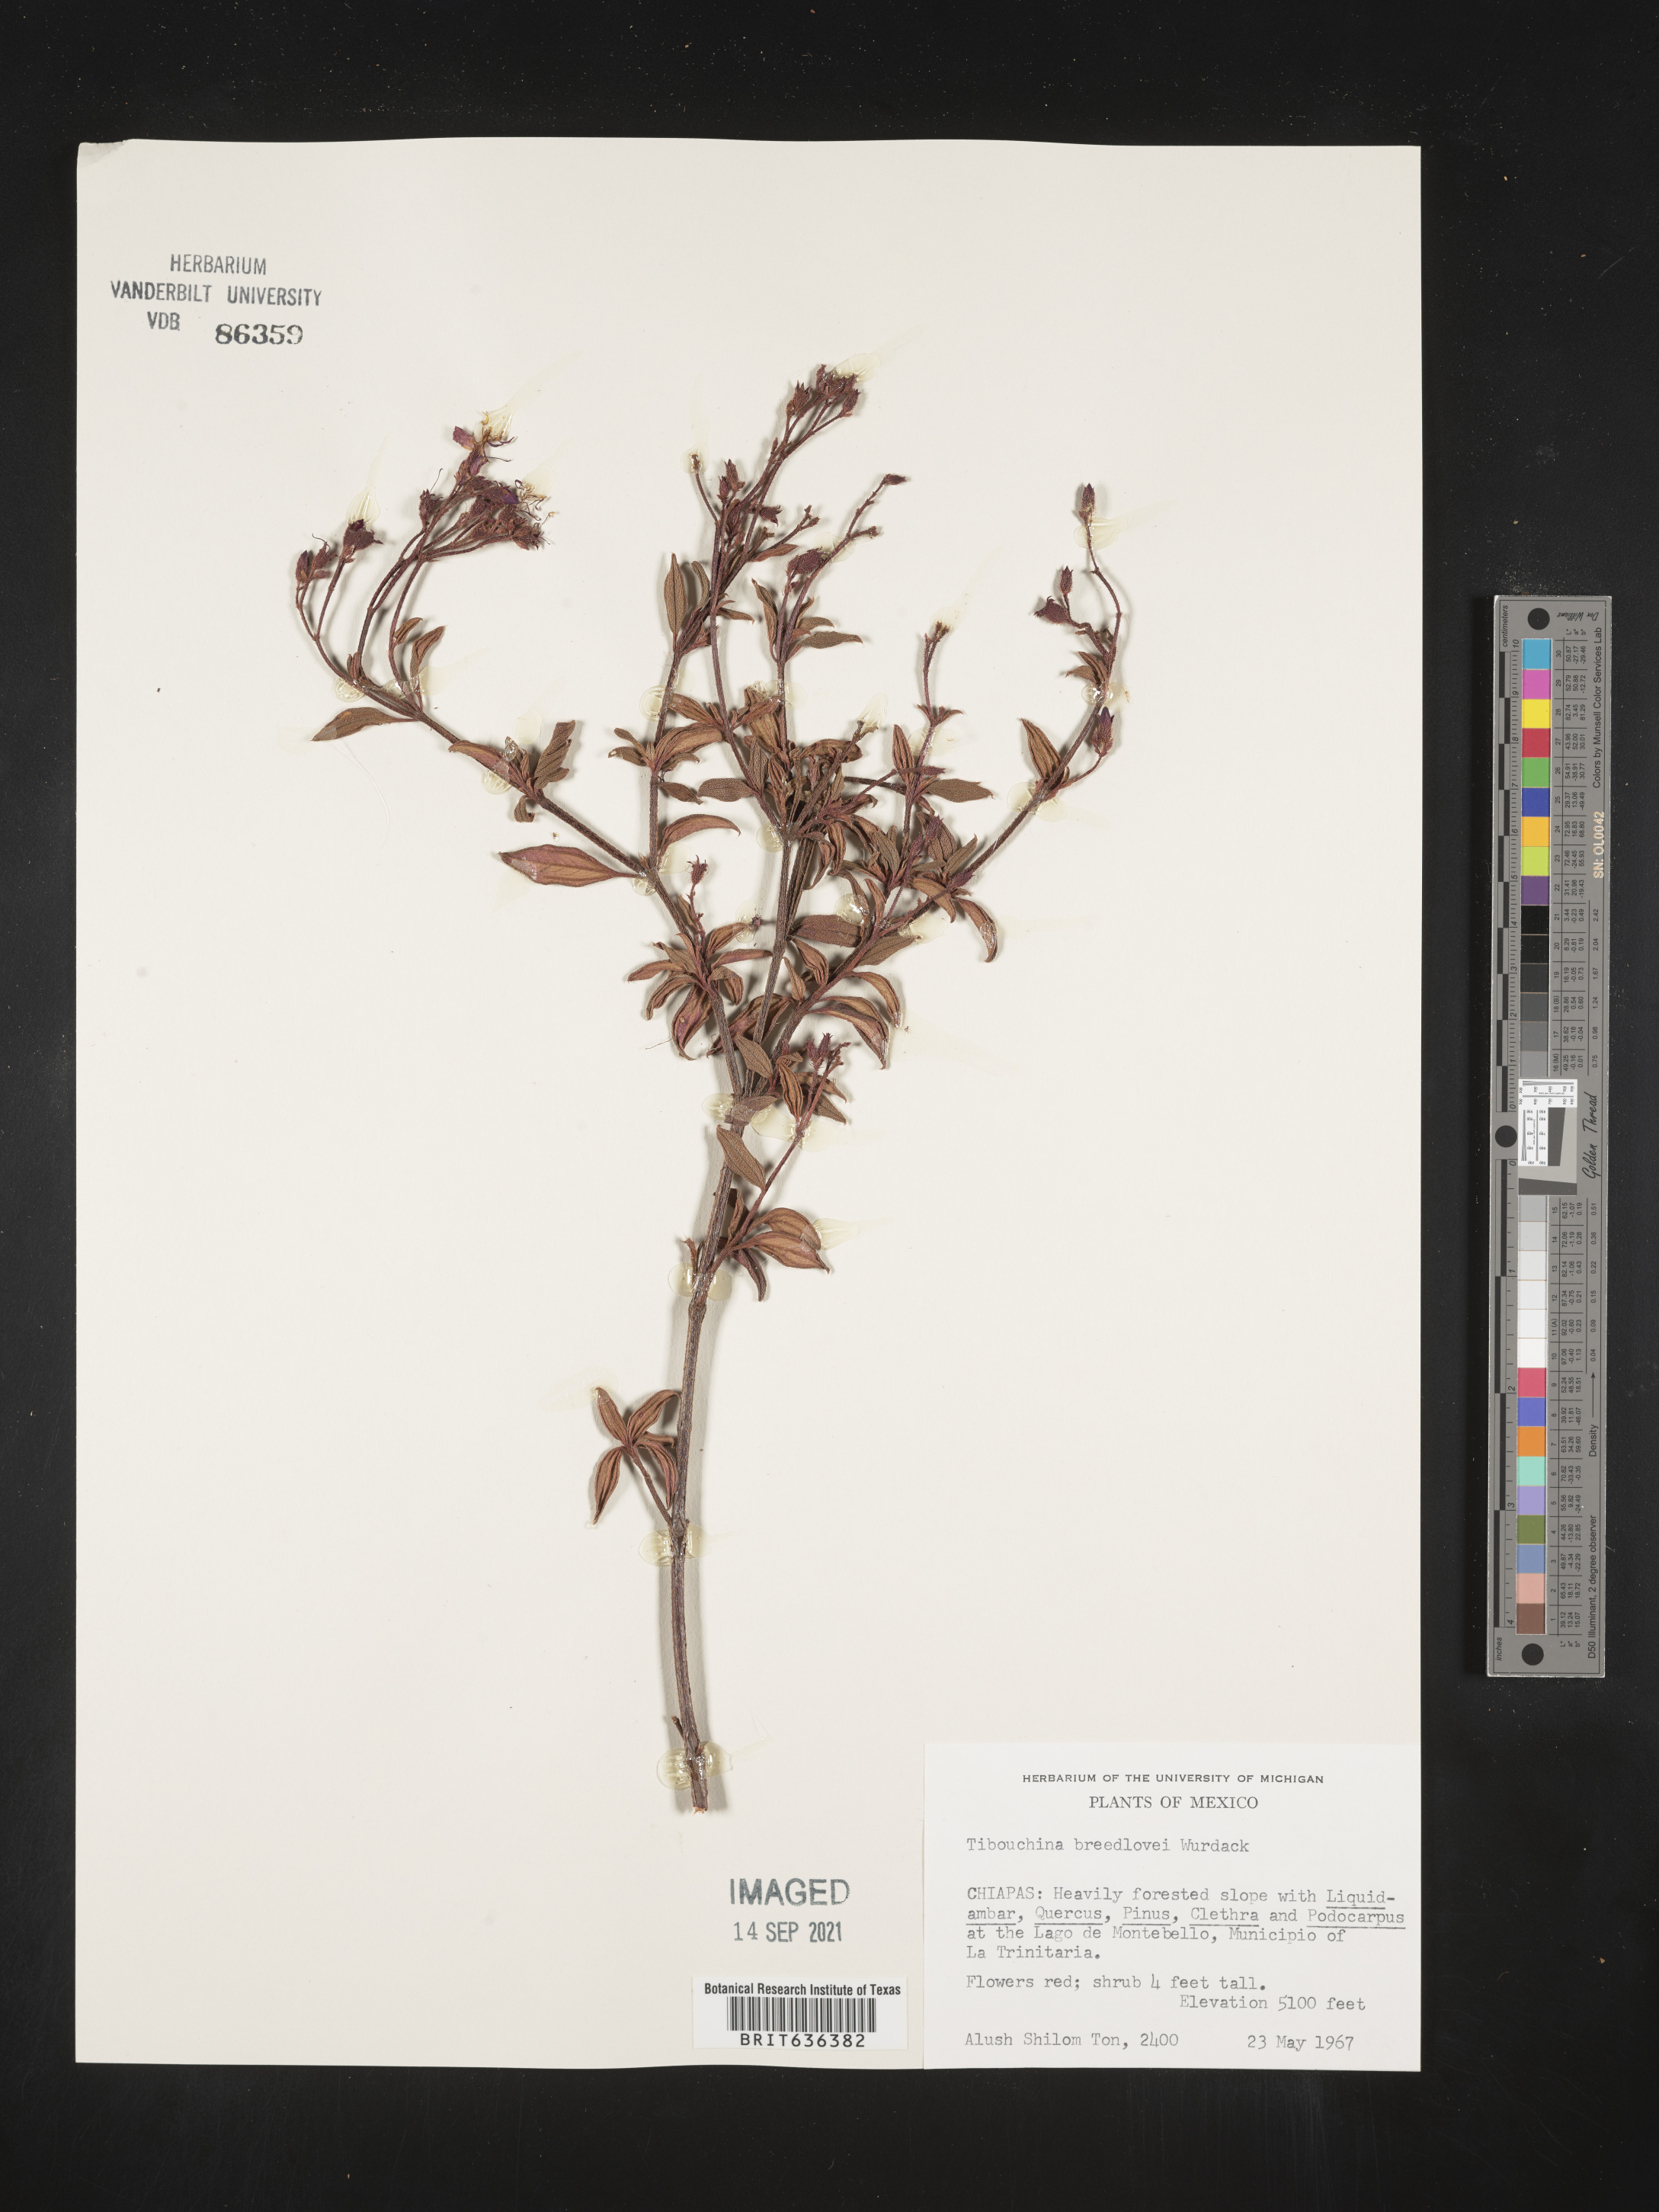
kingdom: Plantae
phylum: Tracheophyta
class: Magnoliopsida
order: Myrtales
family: Melastomataceae
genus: Tibouchina
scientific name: Tibouchina
